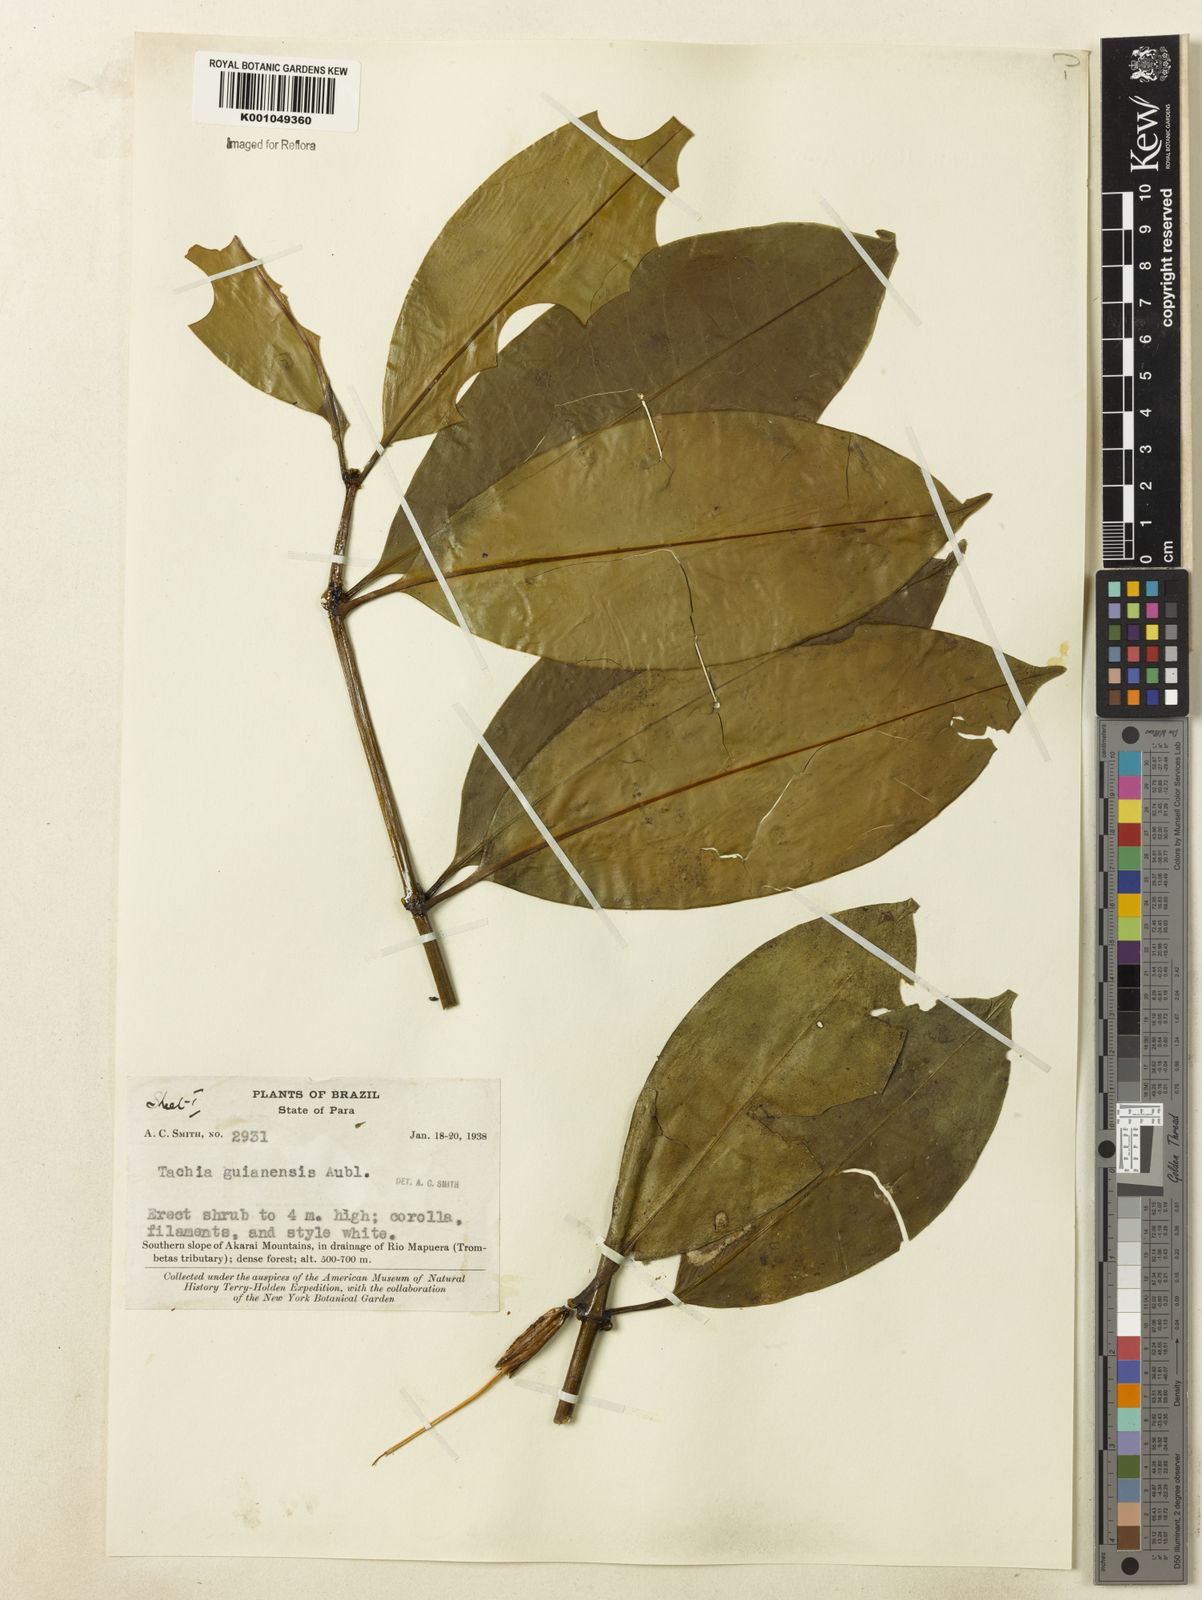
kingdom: Plantae
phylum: Tracheophyta
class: Magnoliopsida
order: Gentianales
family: Gentianaceae
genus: Tachia
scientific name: Tachia guianensis
